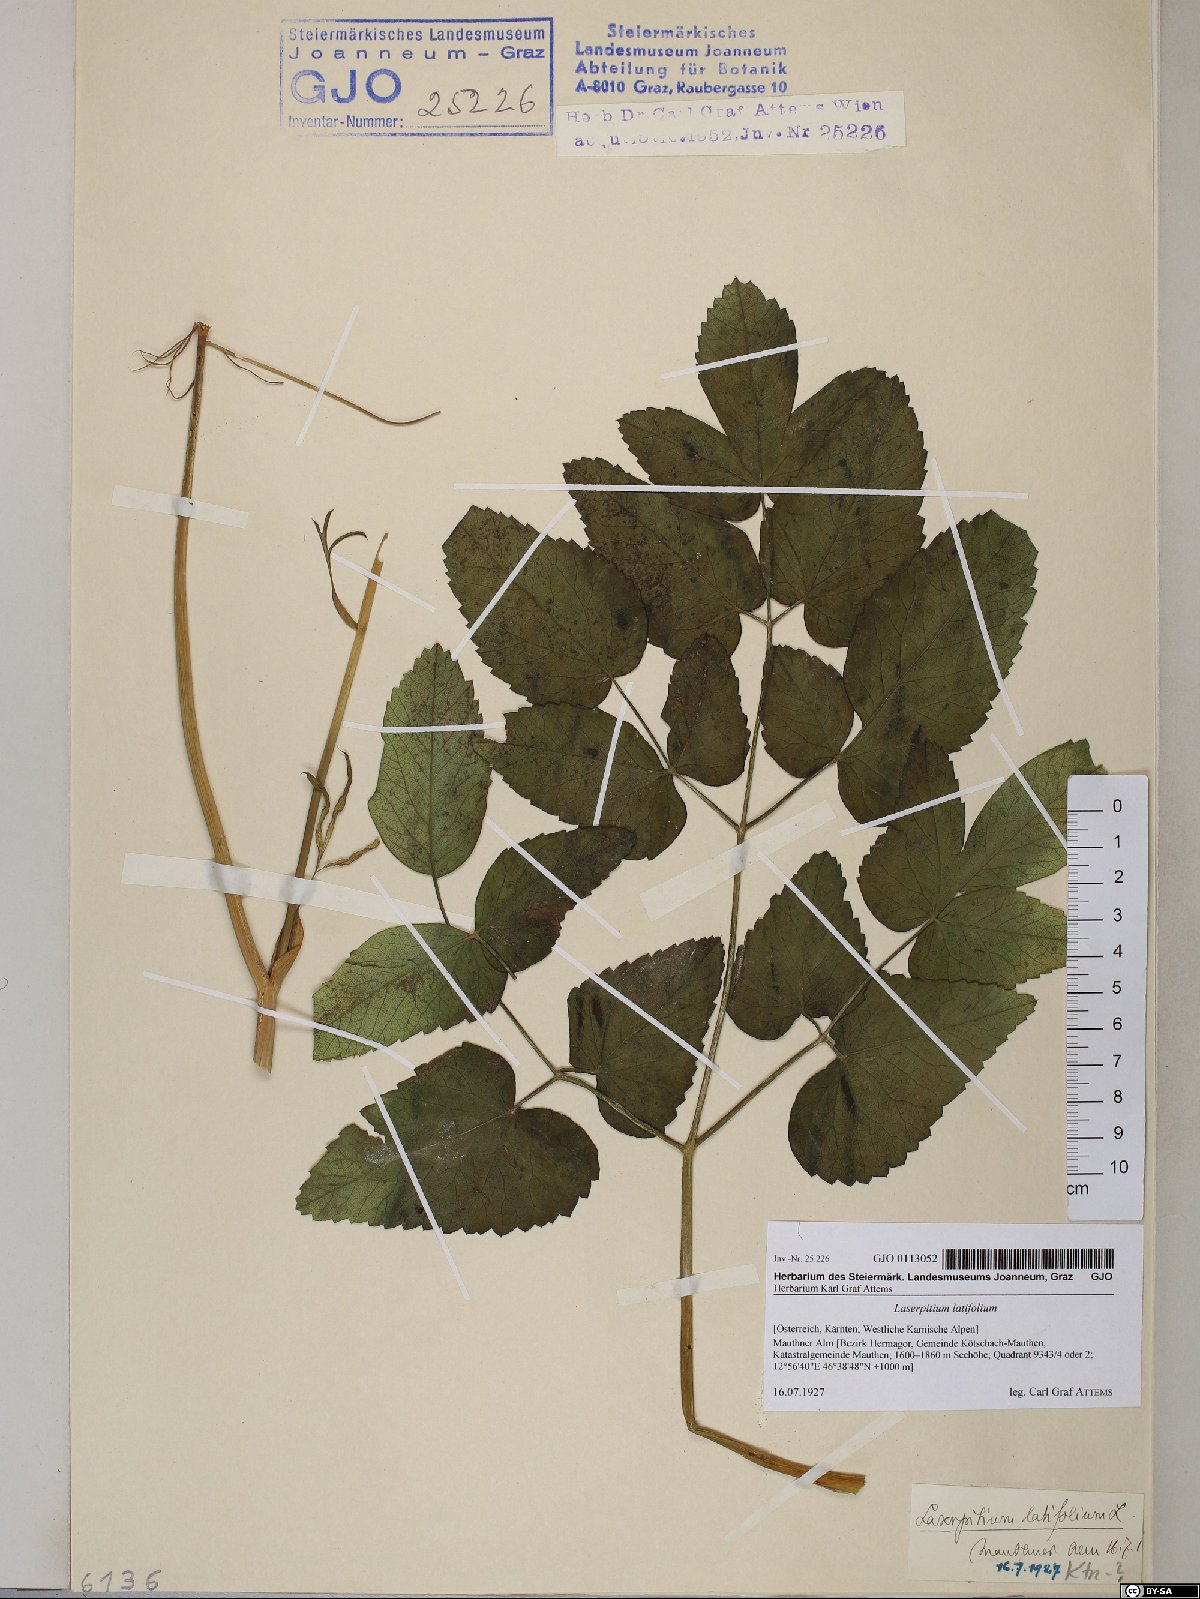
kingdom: Plantae
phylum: Tracheophyta
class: Magnoliopsida
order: Apiales
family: Apiaceae
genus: Laserpitium
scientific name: Laserpitium latifolium
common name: Broadleaf sermountain
